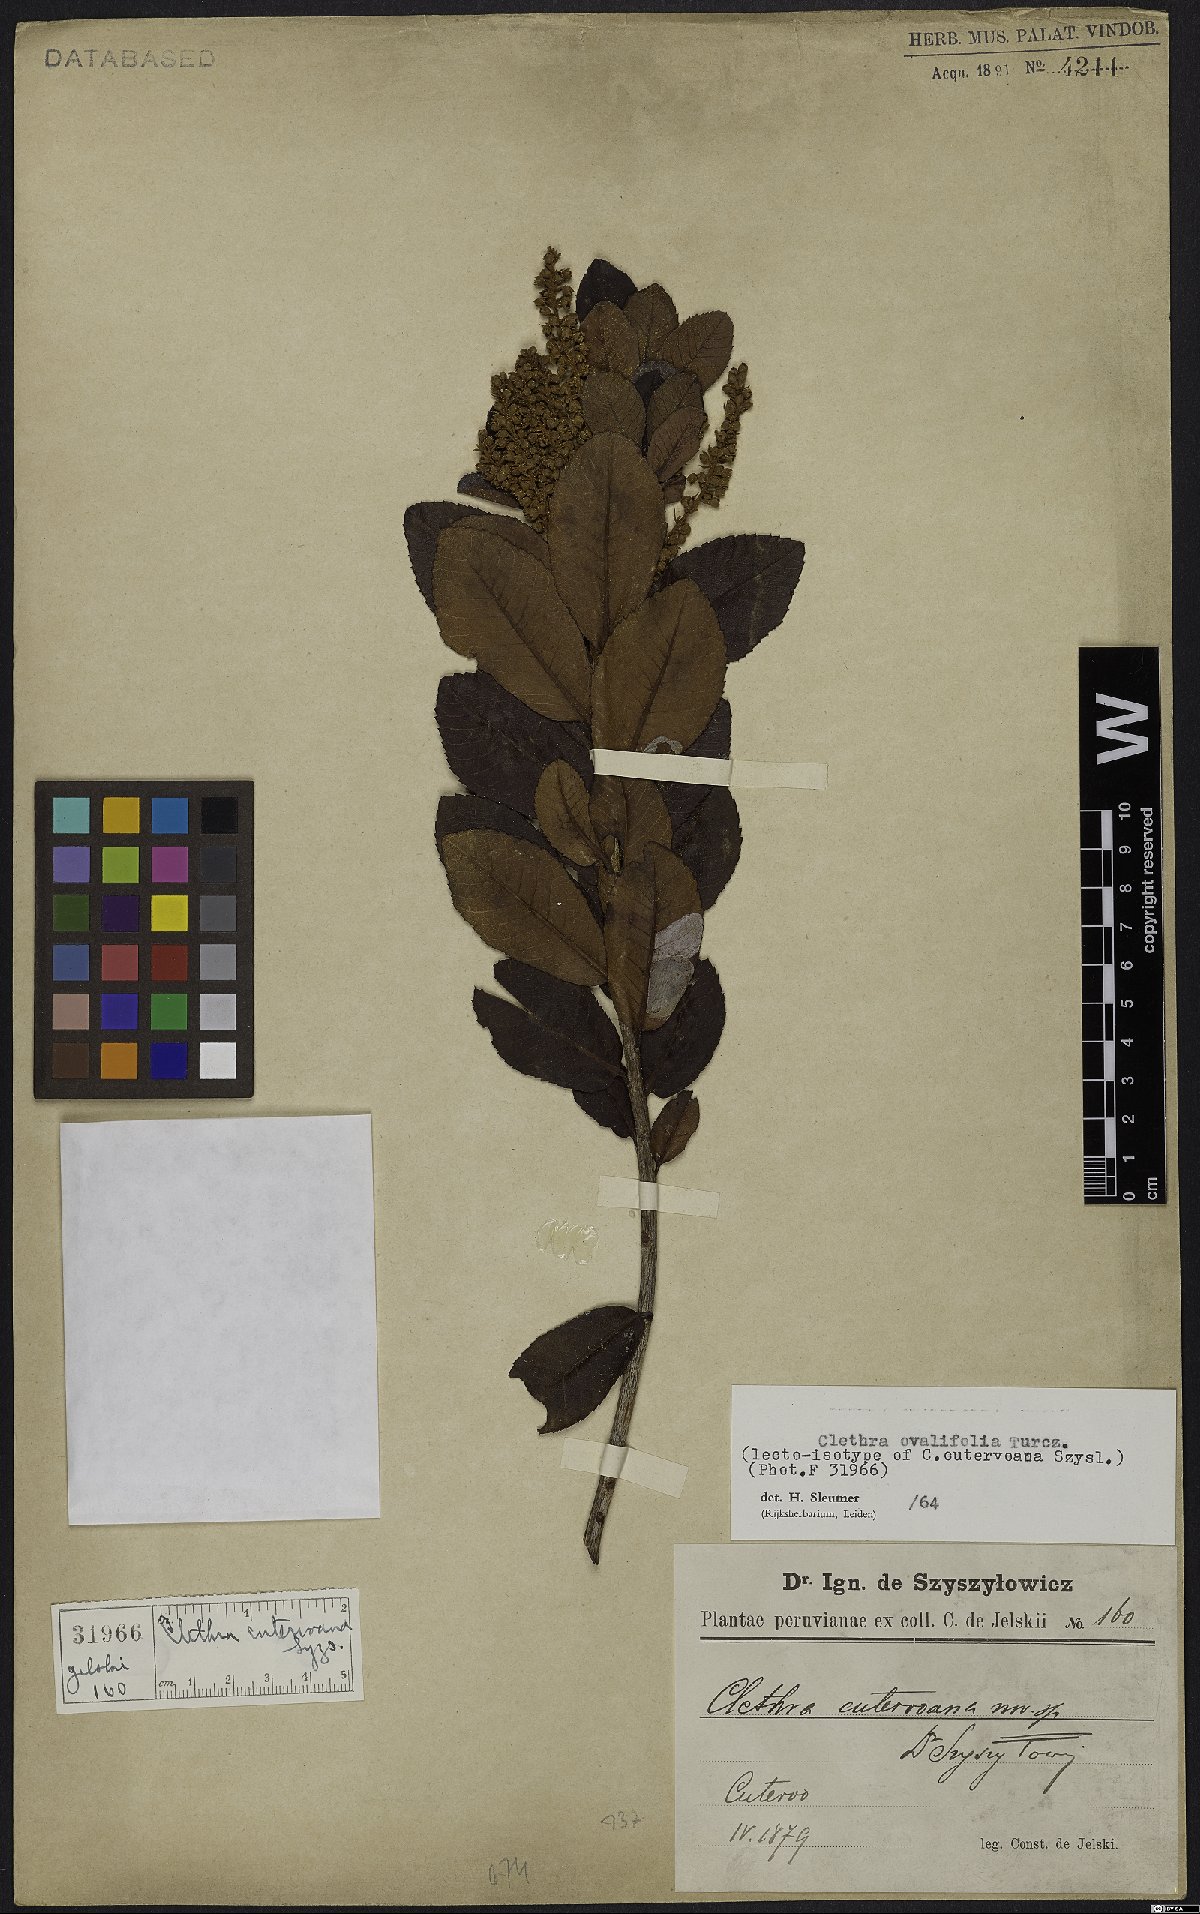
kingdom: Plantae
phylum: Tracheophyta
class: Magnoliopsida
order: Ericales
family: Clethraceae
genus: Clethra
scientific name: Clethra ovalifolia
